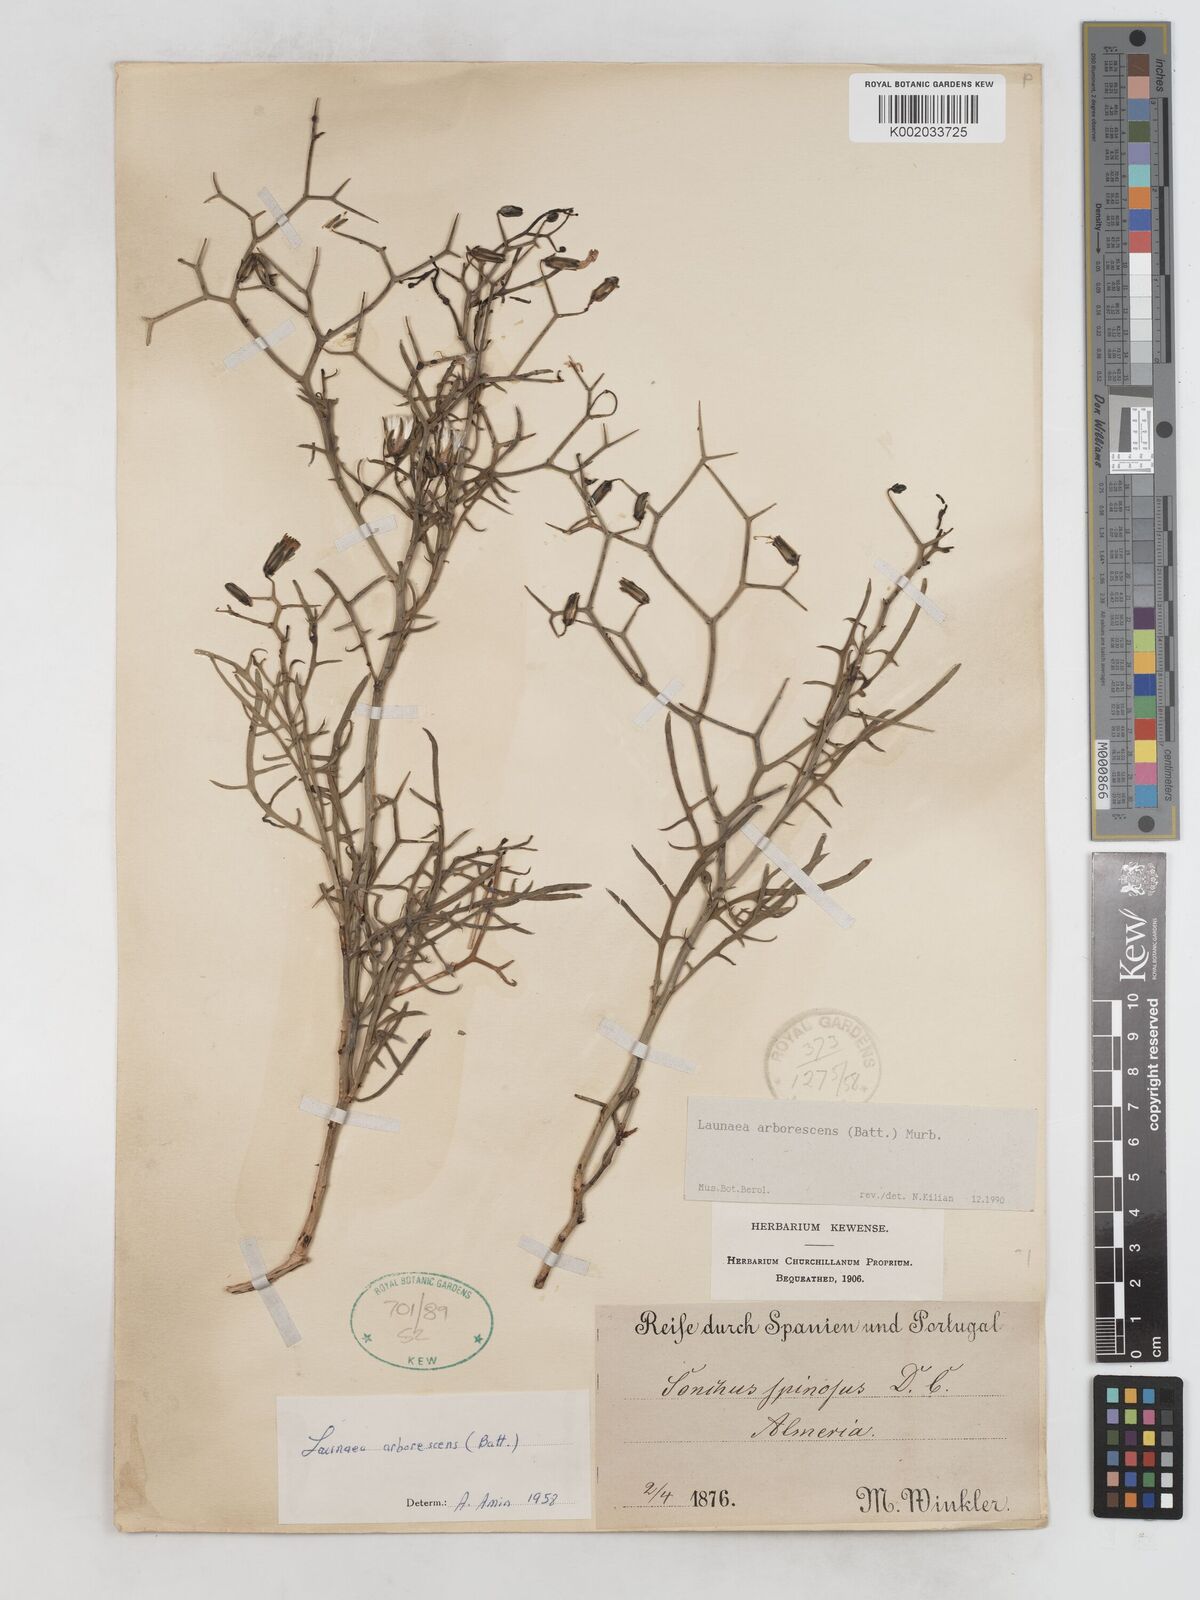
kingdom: Plantae
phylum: Tracheophyta
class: Magnoliopsida
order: Asterales
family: Asteraceae
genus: Launaea
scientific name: Launaea arborescens
